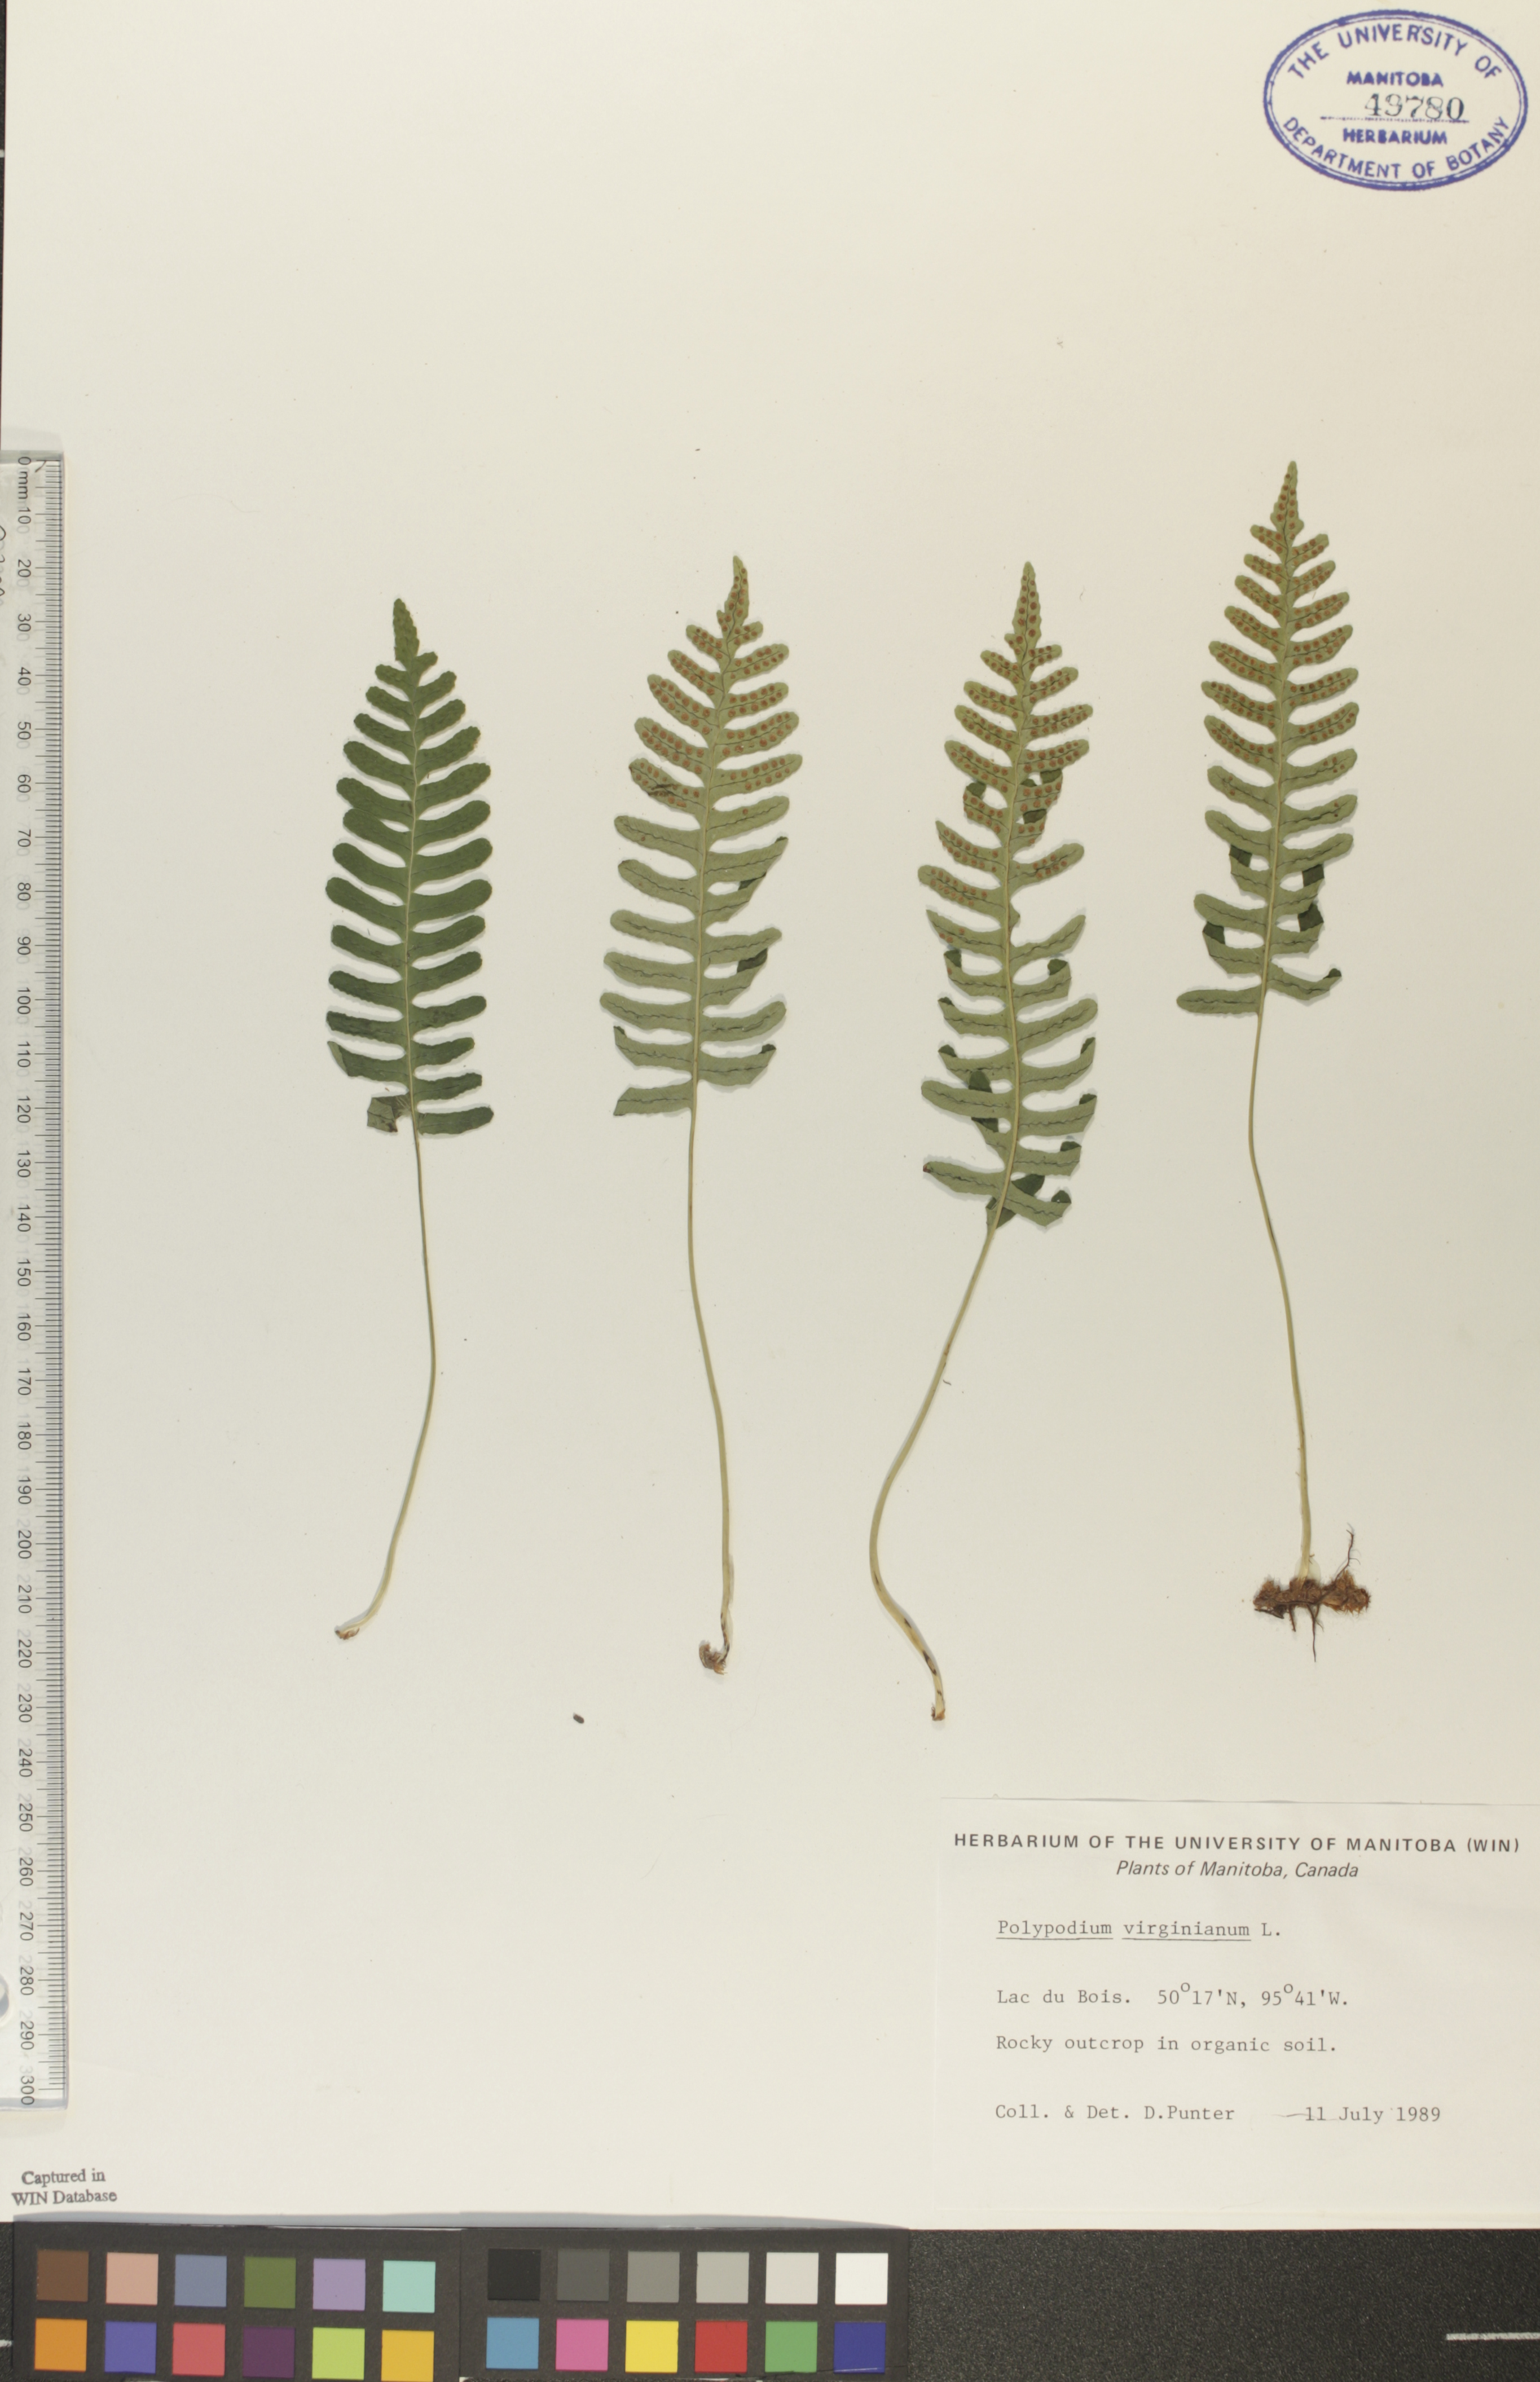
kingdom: Plantae
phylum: Tracheophyta
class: Polypodiopsida
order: Polypodiales
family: Polypodiaceae
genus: Polypodium
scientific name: Polypodium virginianum
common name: American wall fern
